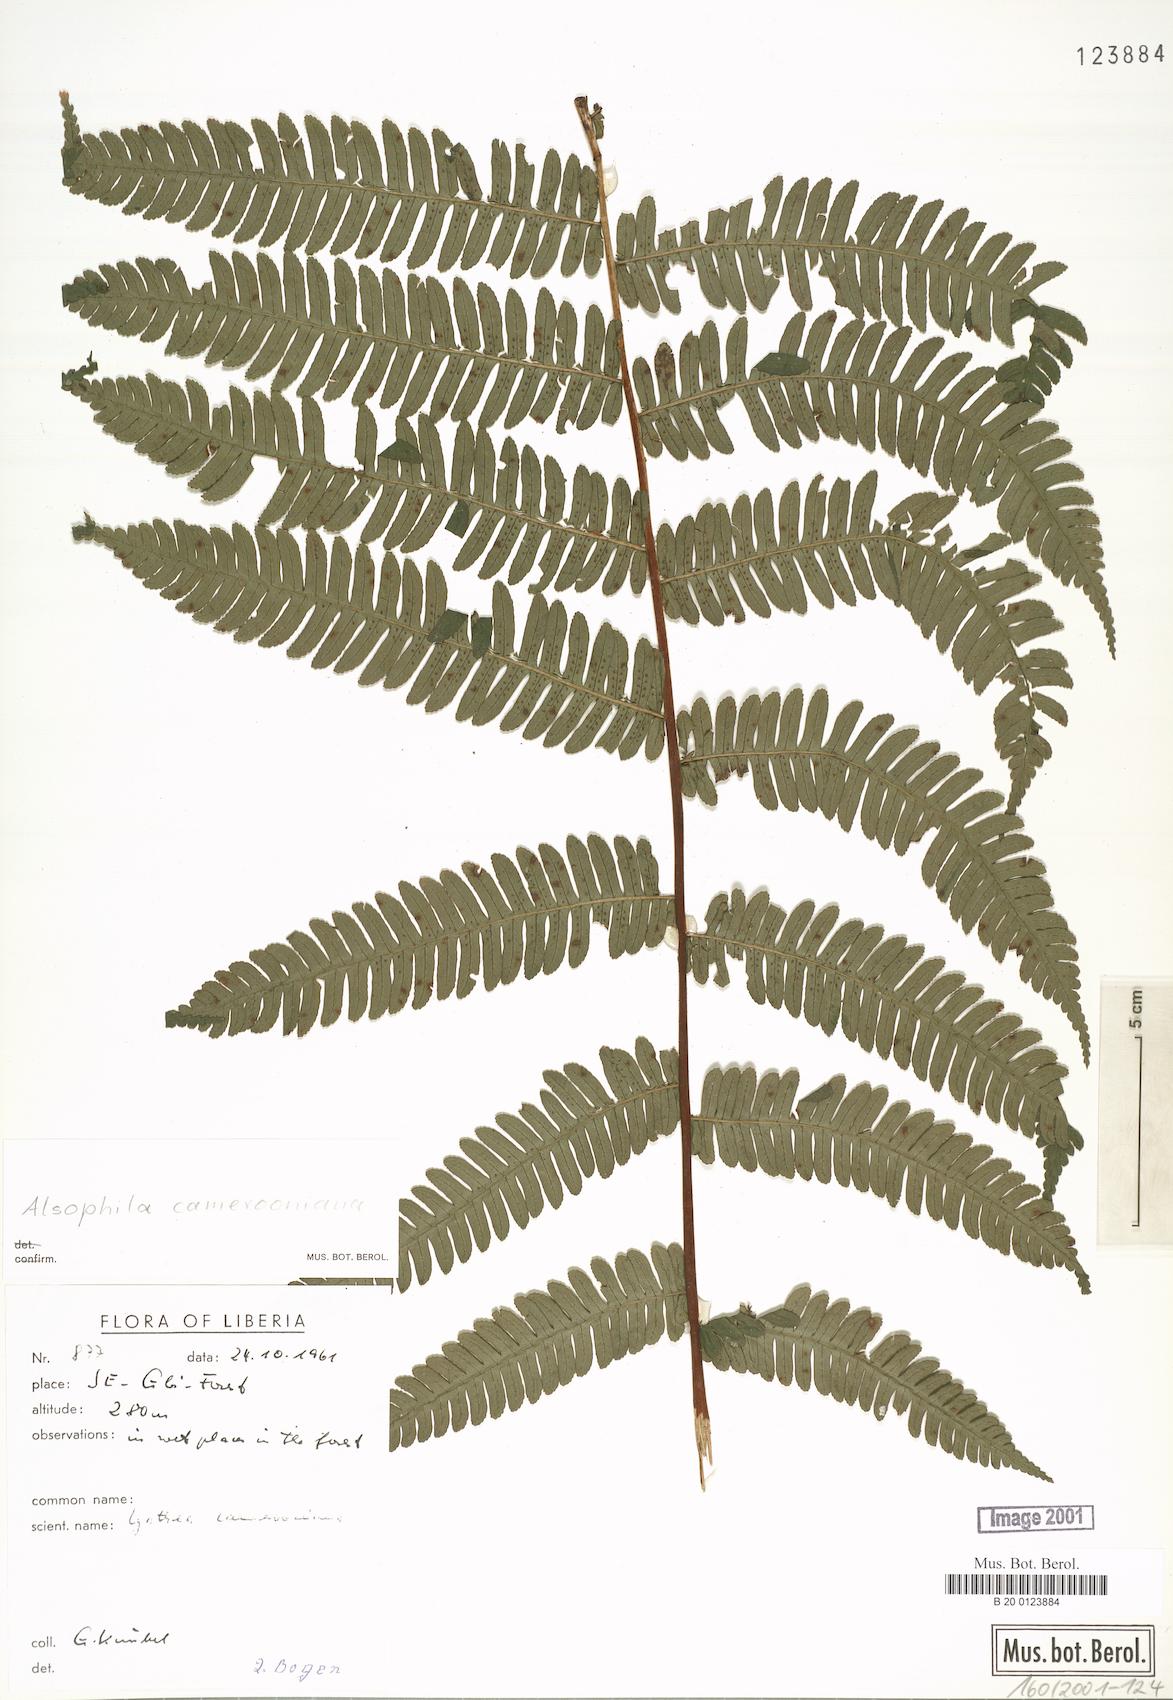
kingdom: Plantae
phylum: Tracheophyta
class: Polypodiopsida
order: Cyatheales
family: Cyatheaceae
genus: Alsophila
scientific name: Alsophila camerooniana
